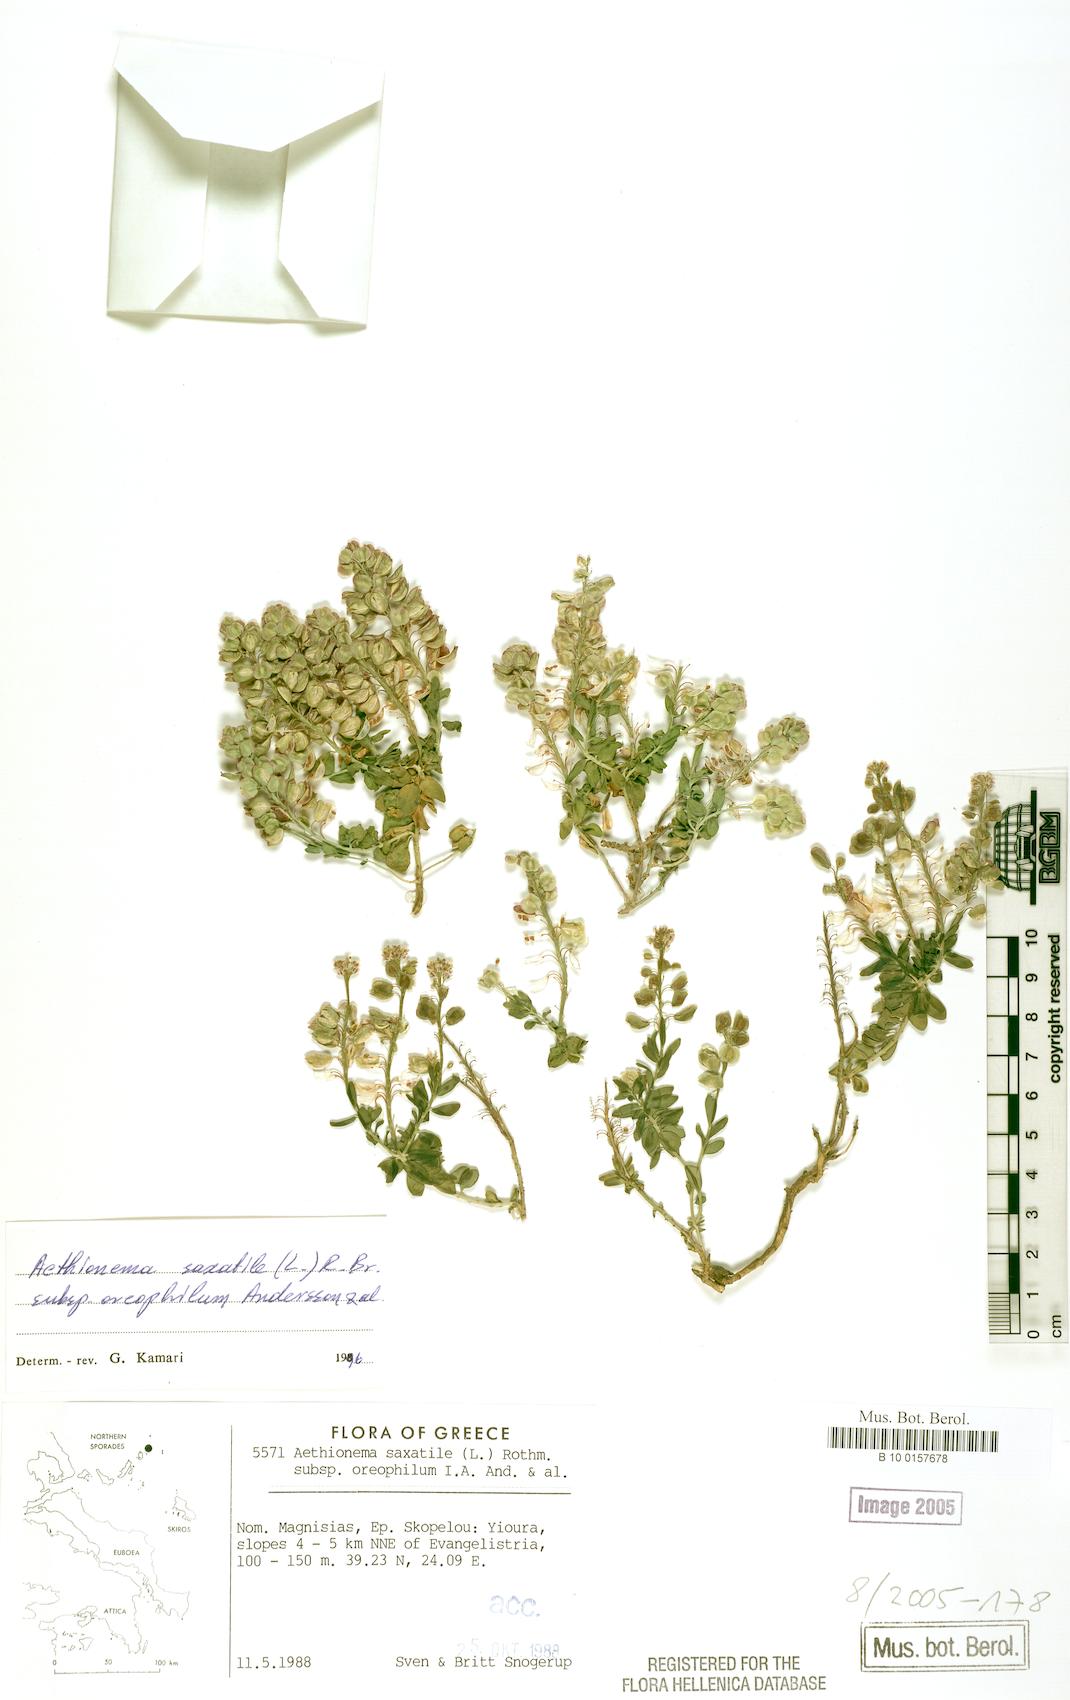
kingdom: Plantae
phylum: Tracheophyta
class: Magnoliopsida
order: Brassicales
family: Brassicaceae
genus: Aethionema
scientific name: Aethionema saxatile
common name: Burnt candytuft
